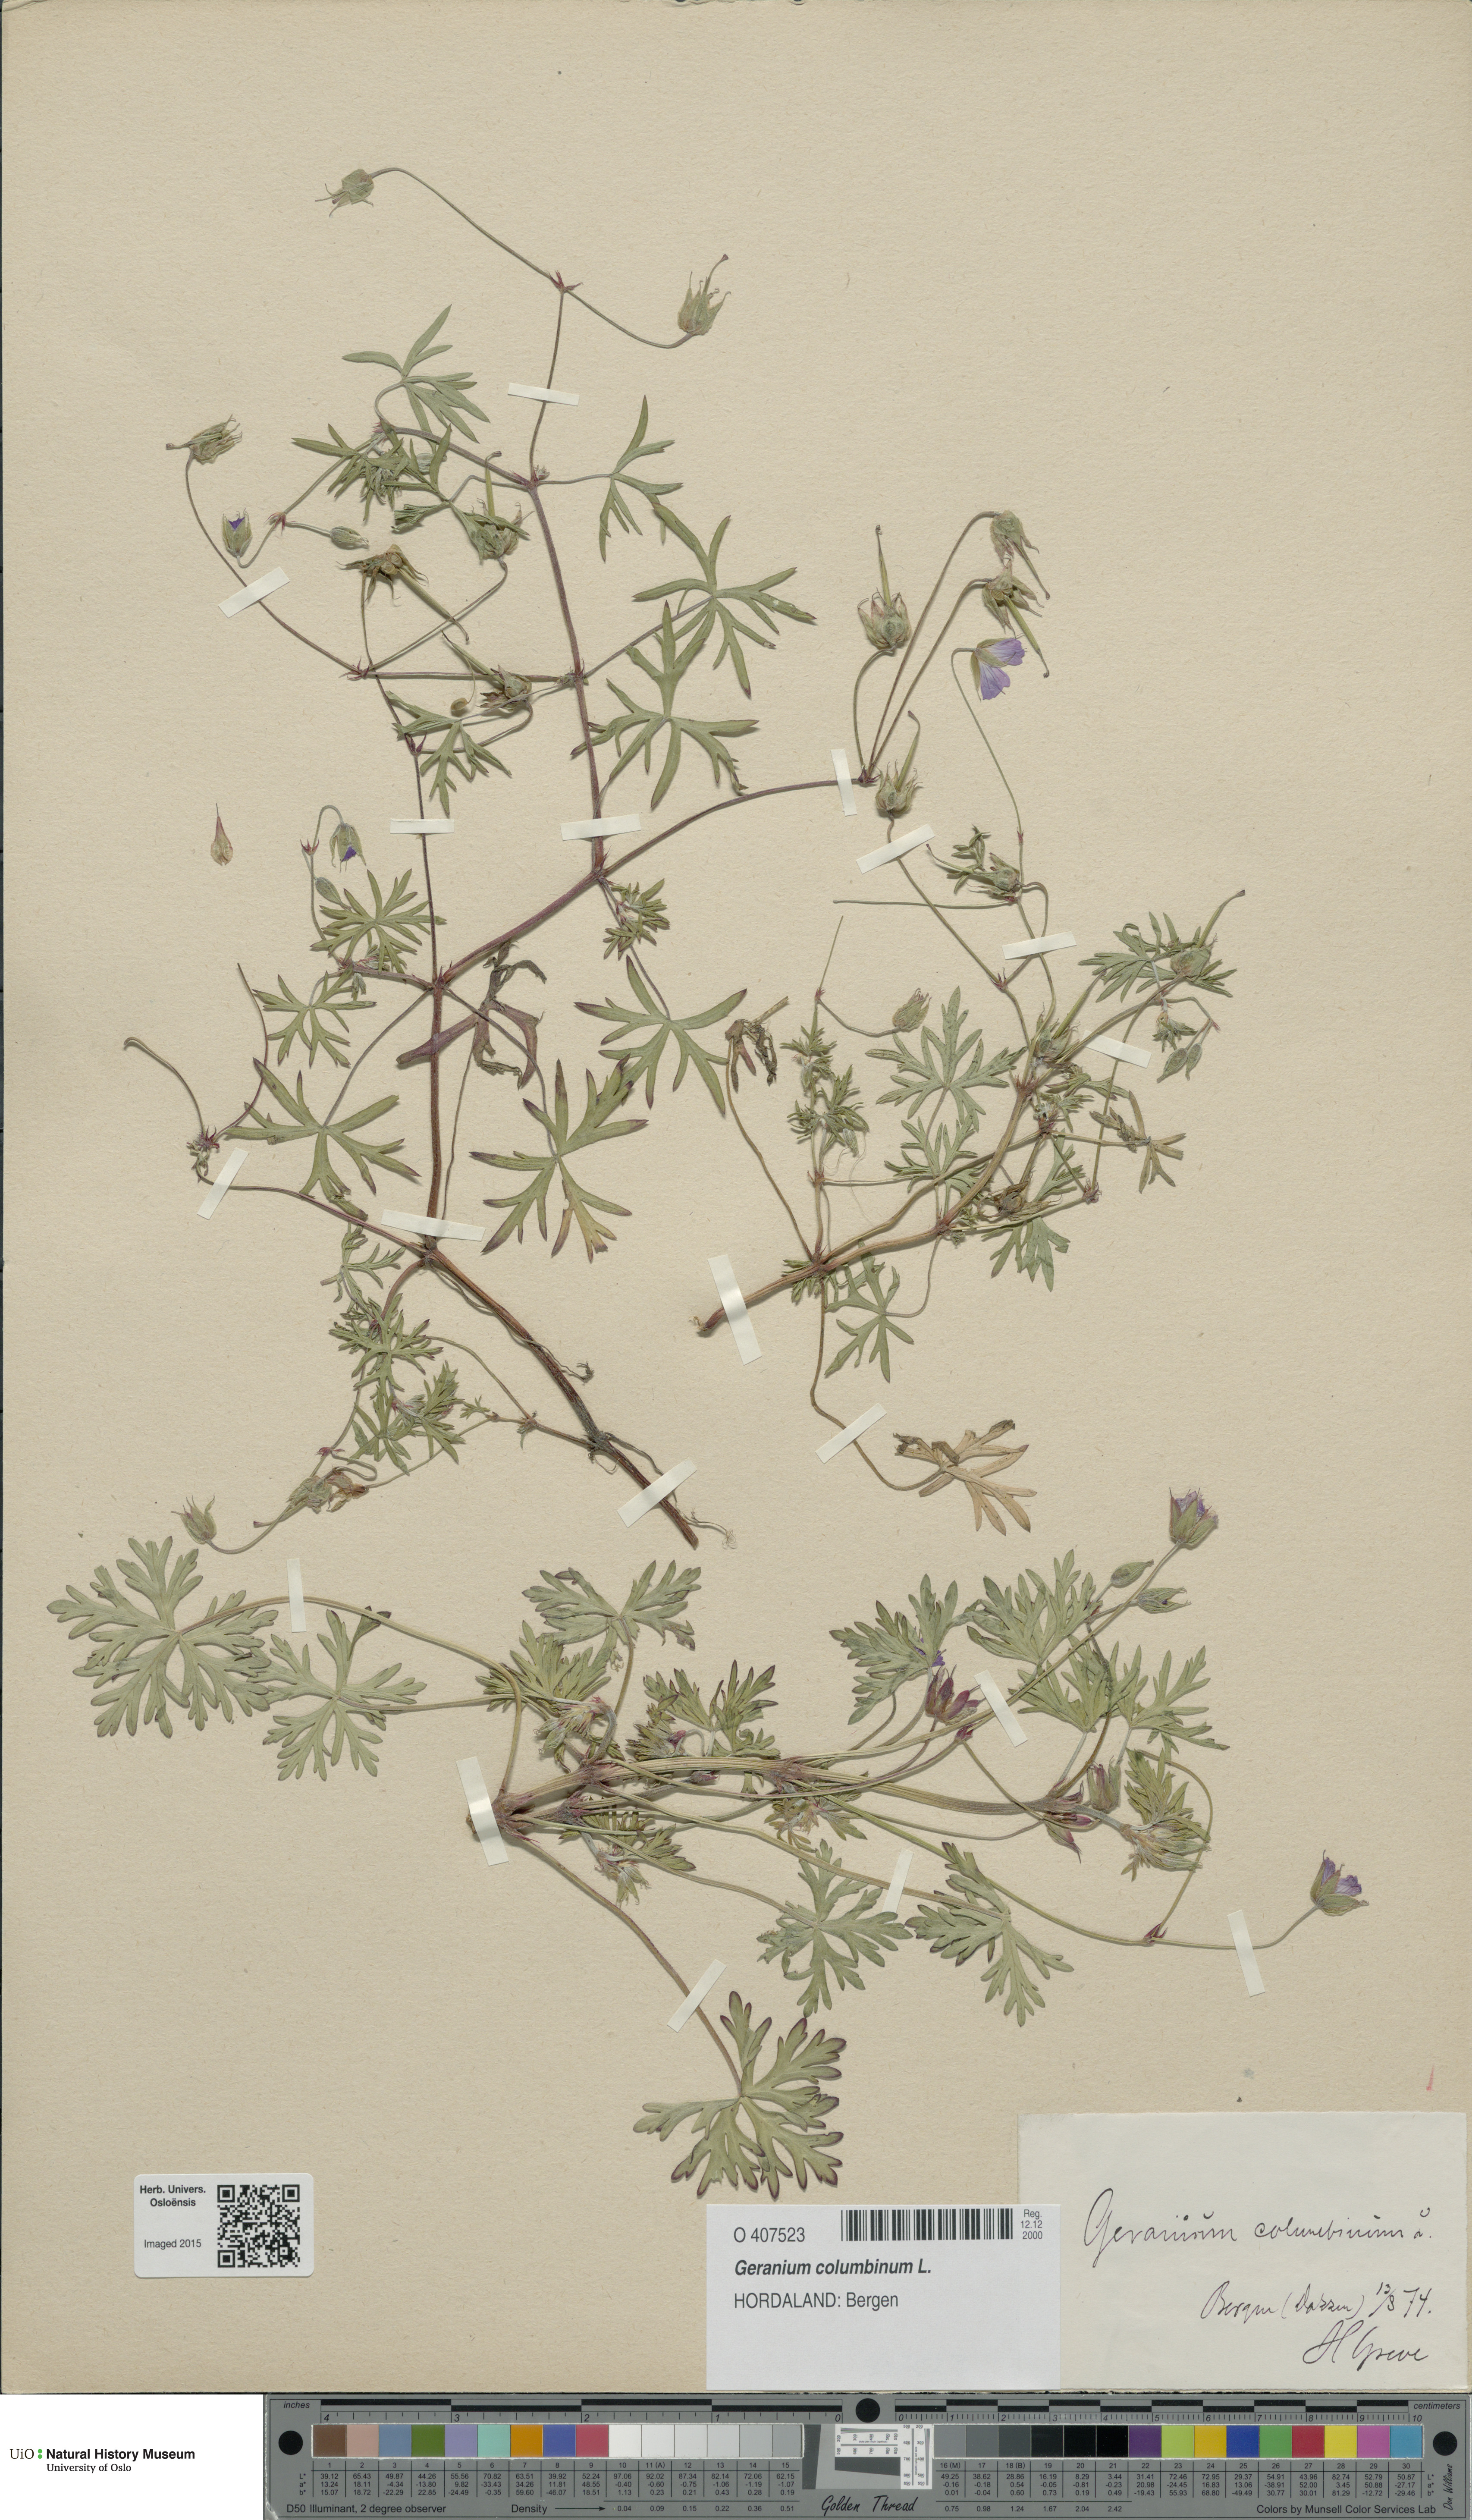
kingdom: Plantae
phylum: Tracheophyta
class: Magnoliopsida
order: Geraniales
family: Geraniaceae
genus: Geranium
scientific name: Geranium columbinum
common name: Long-stalked crane's-bill
